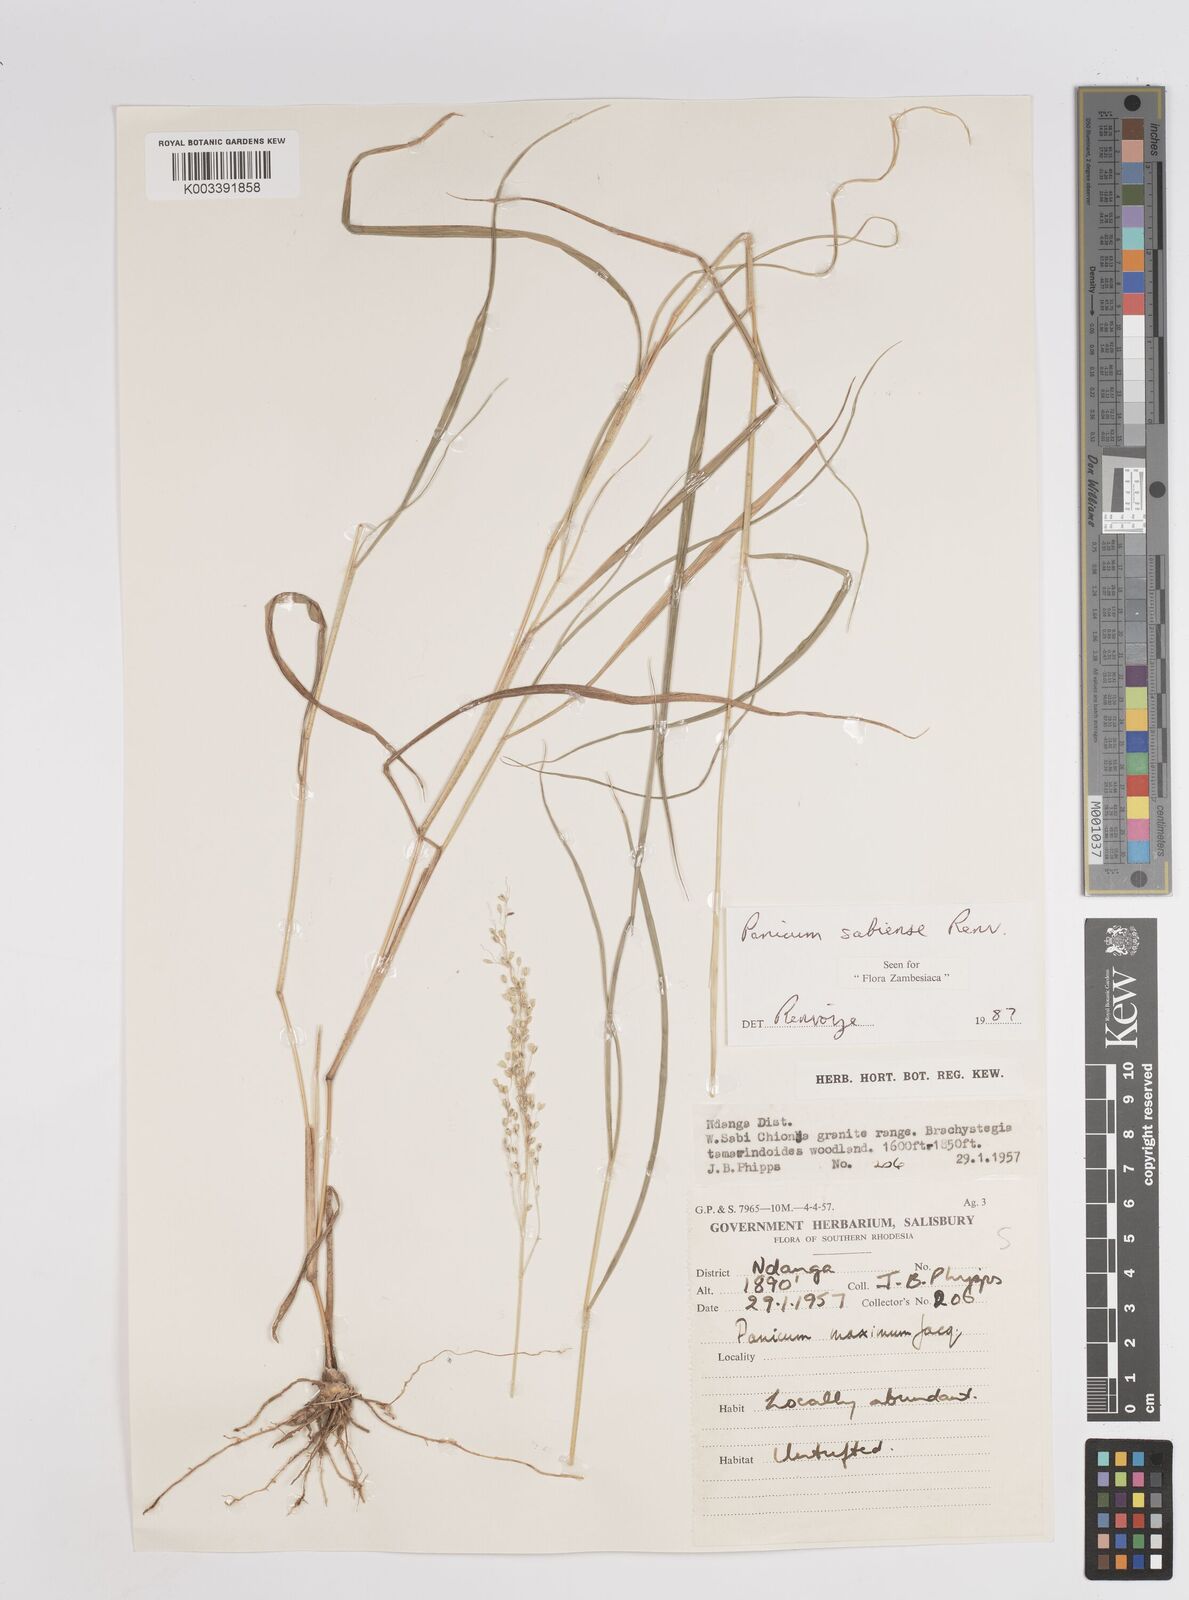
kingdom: Plantae
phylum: Tracheophyta
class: Liliopsida
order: Poales
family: Poaceae
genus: Panicum
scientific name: Panicum trichoides
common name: Tickle grass
